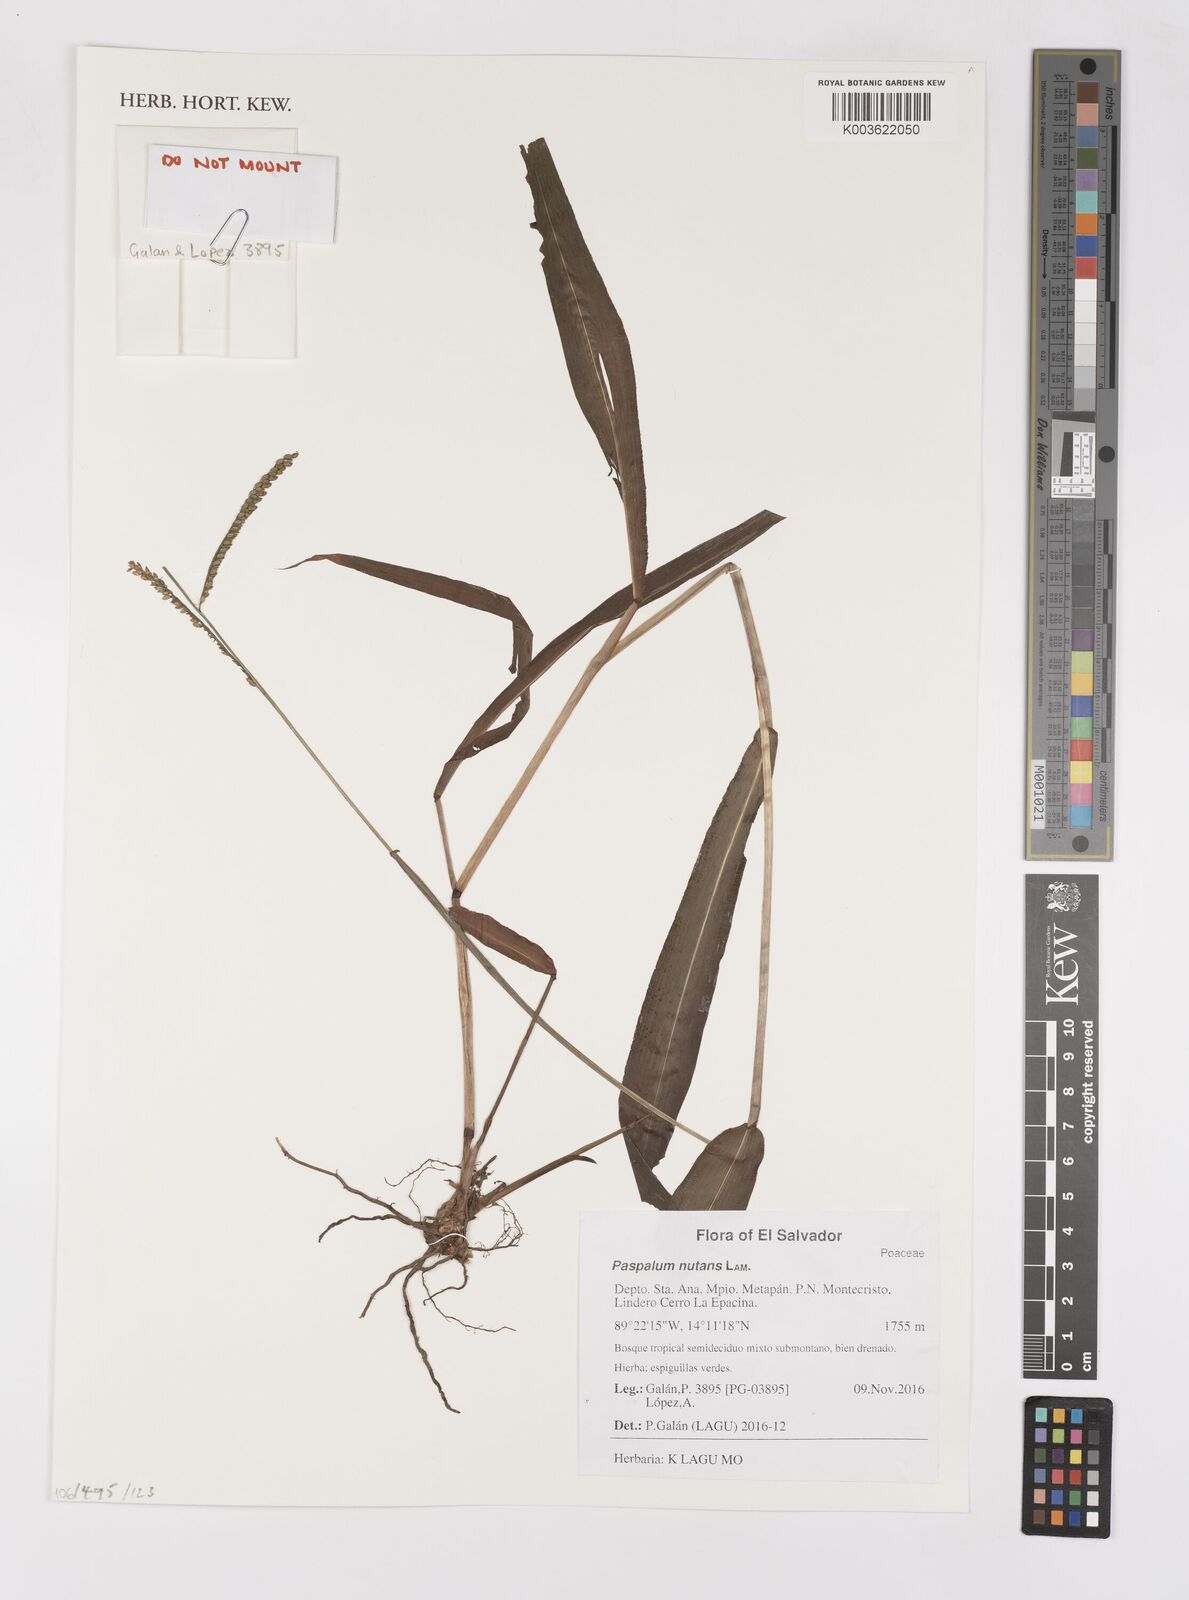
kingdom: Plantae
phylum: Tracheophyta
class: Liliopsida
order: Poales
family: Poaceae
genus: Paspalum
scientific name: Paspalum nutans
